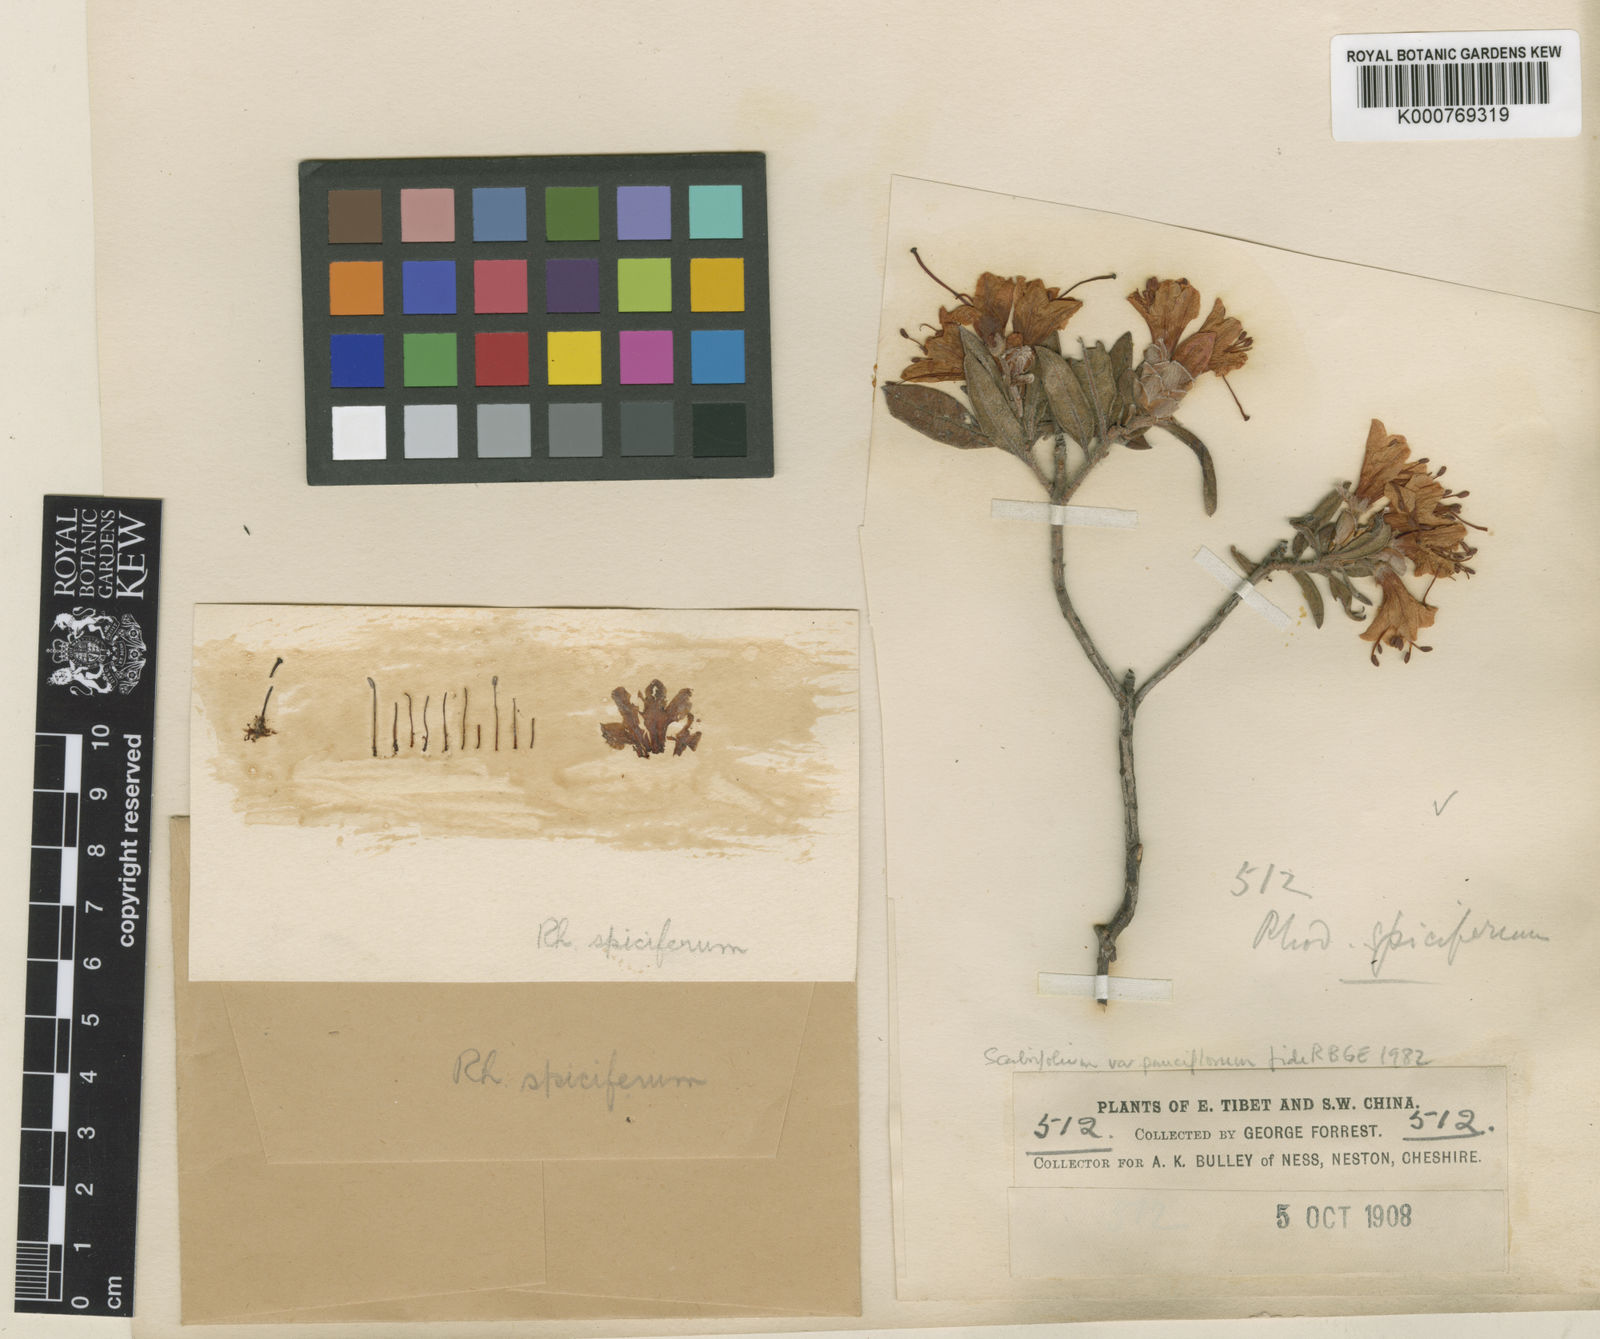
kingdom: Plantae
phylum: Tracheophyta
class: Magnoliopsida
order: Ericales
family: Ericaceae
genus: Rhododendron
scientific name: Rhododendron scabrifolium
